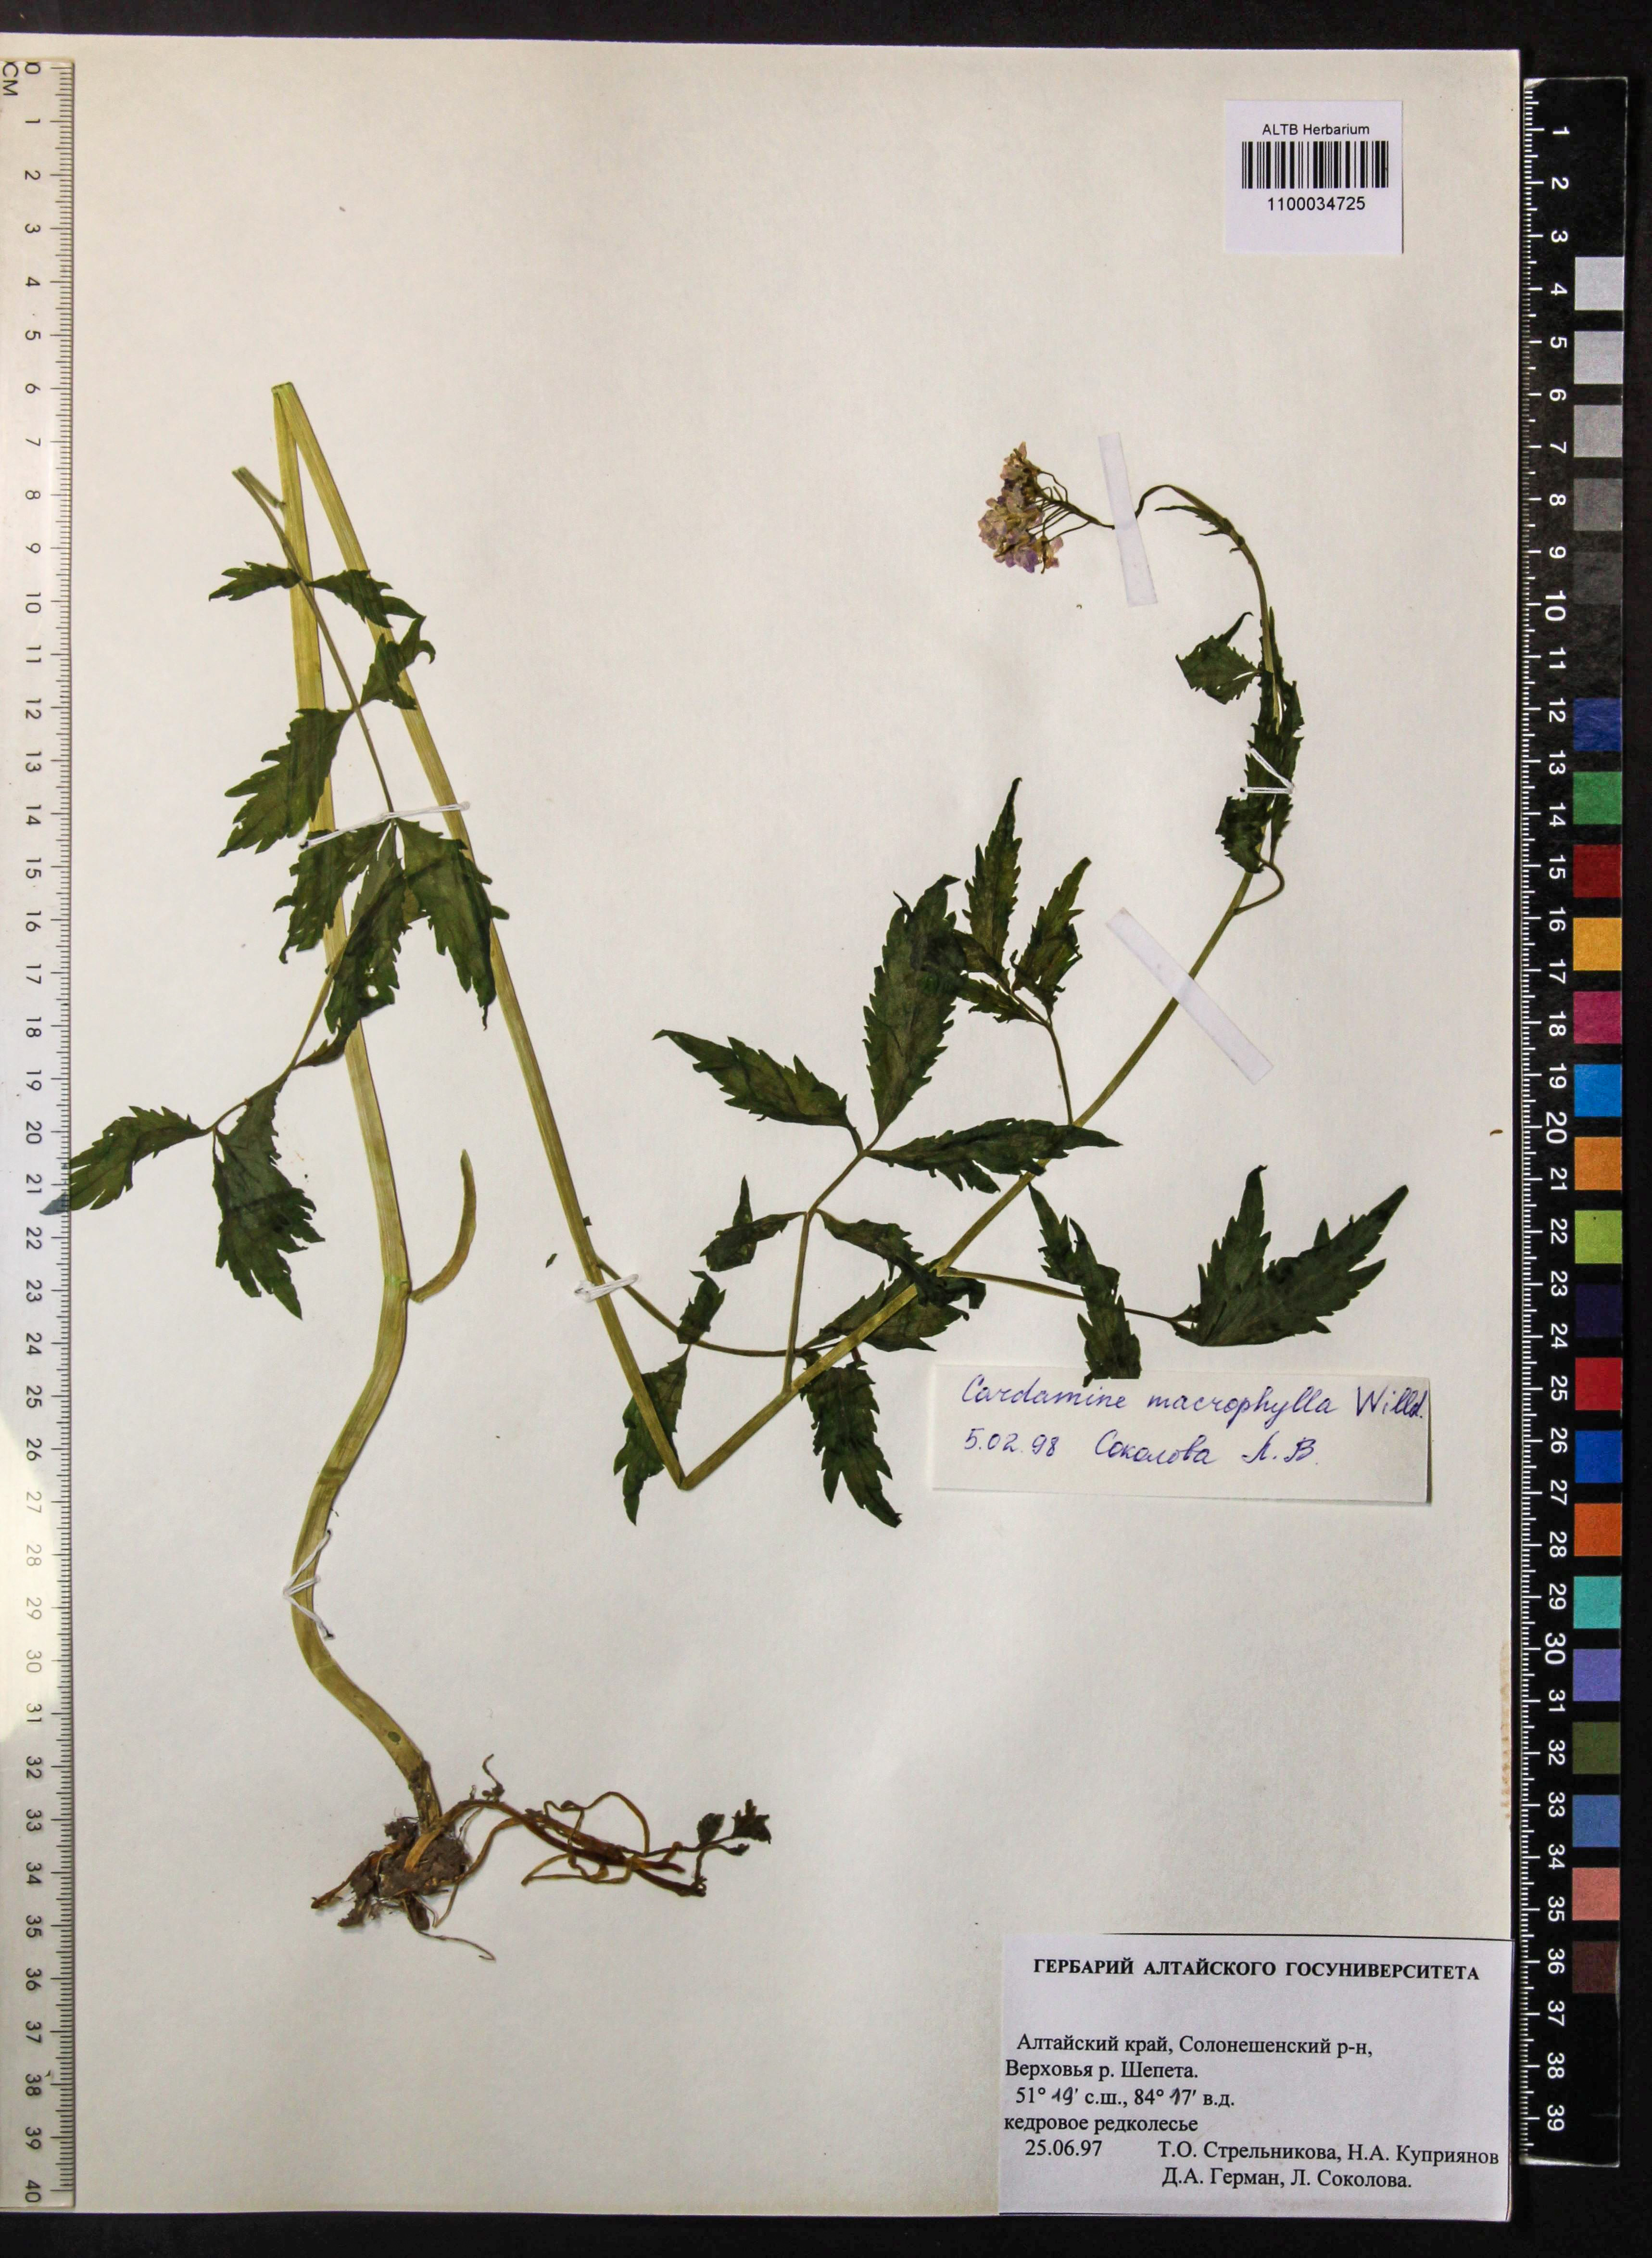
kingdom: Plantae
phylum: Tracheophyta
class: Magnoliopsida
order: Brassicales
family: Brassicaceae
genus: Cardamine
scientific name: Cardamine macrophylla
